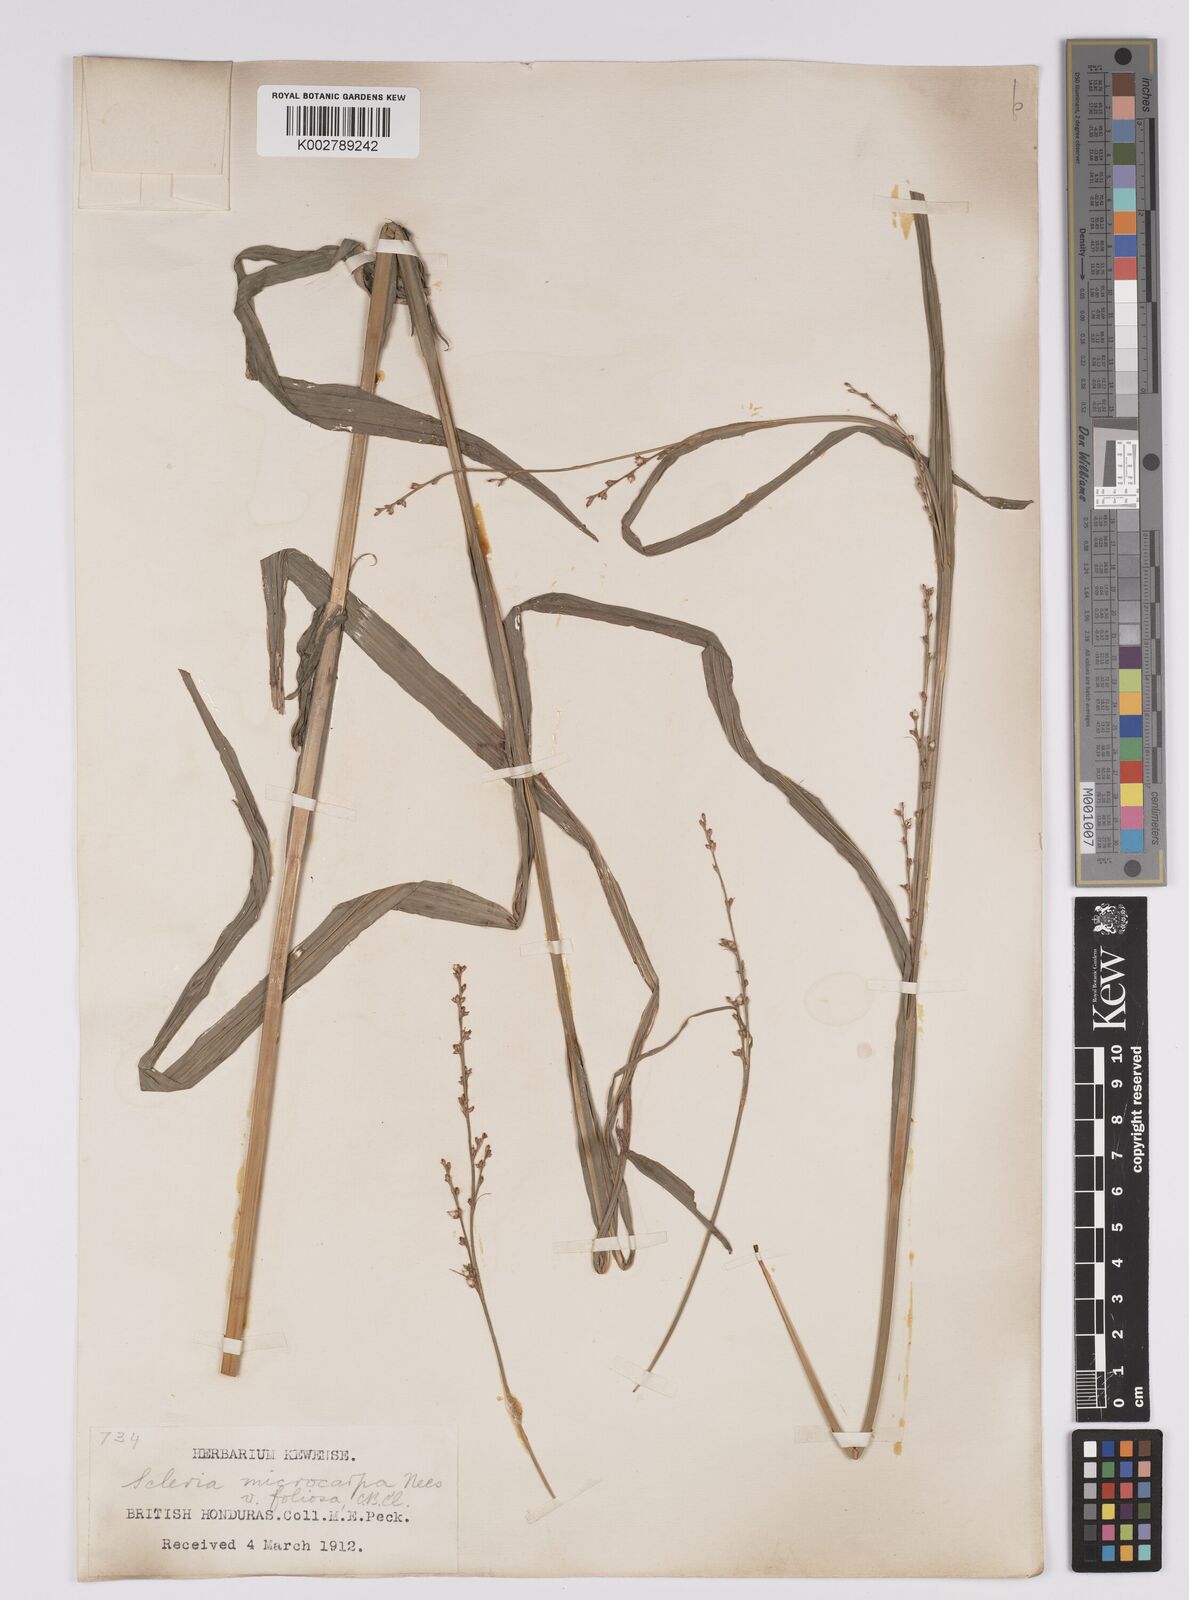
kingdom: Plantae
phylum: Tracheophyta
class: Liliopsida
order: Poales
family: Cyperaceae
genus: Scleria
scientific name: Scleria microcarpa
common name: Tropical nutrush
